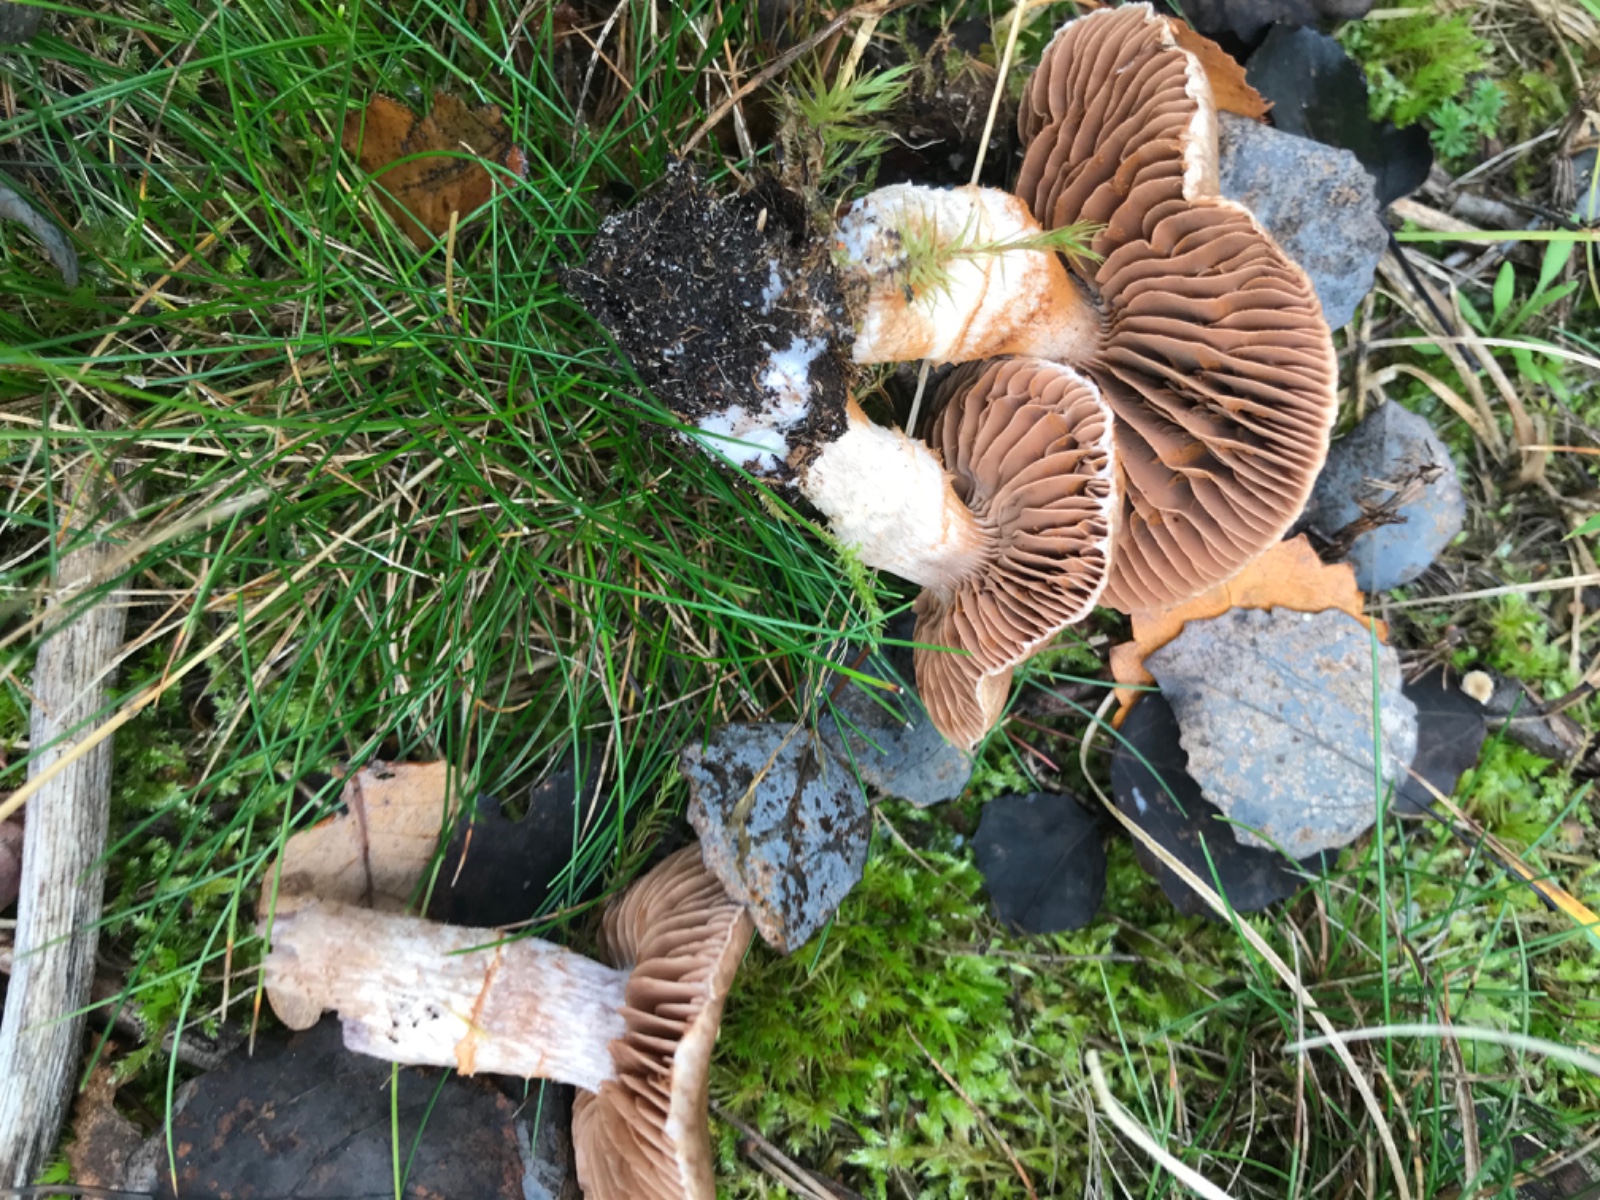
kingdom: Fungi
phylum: Basidiomycota
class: Agaricomycetes
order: Agaricales
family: Cortinariaceae
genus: Cortinarius
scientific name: Cortinarius
